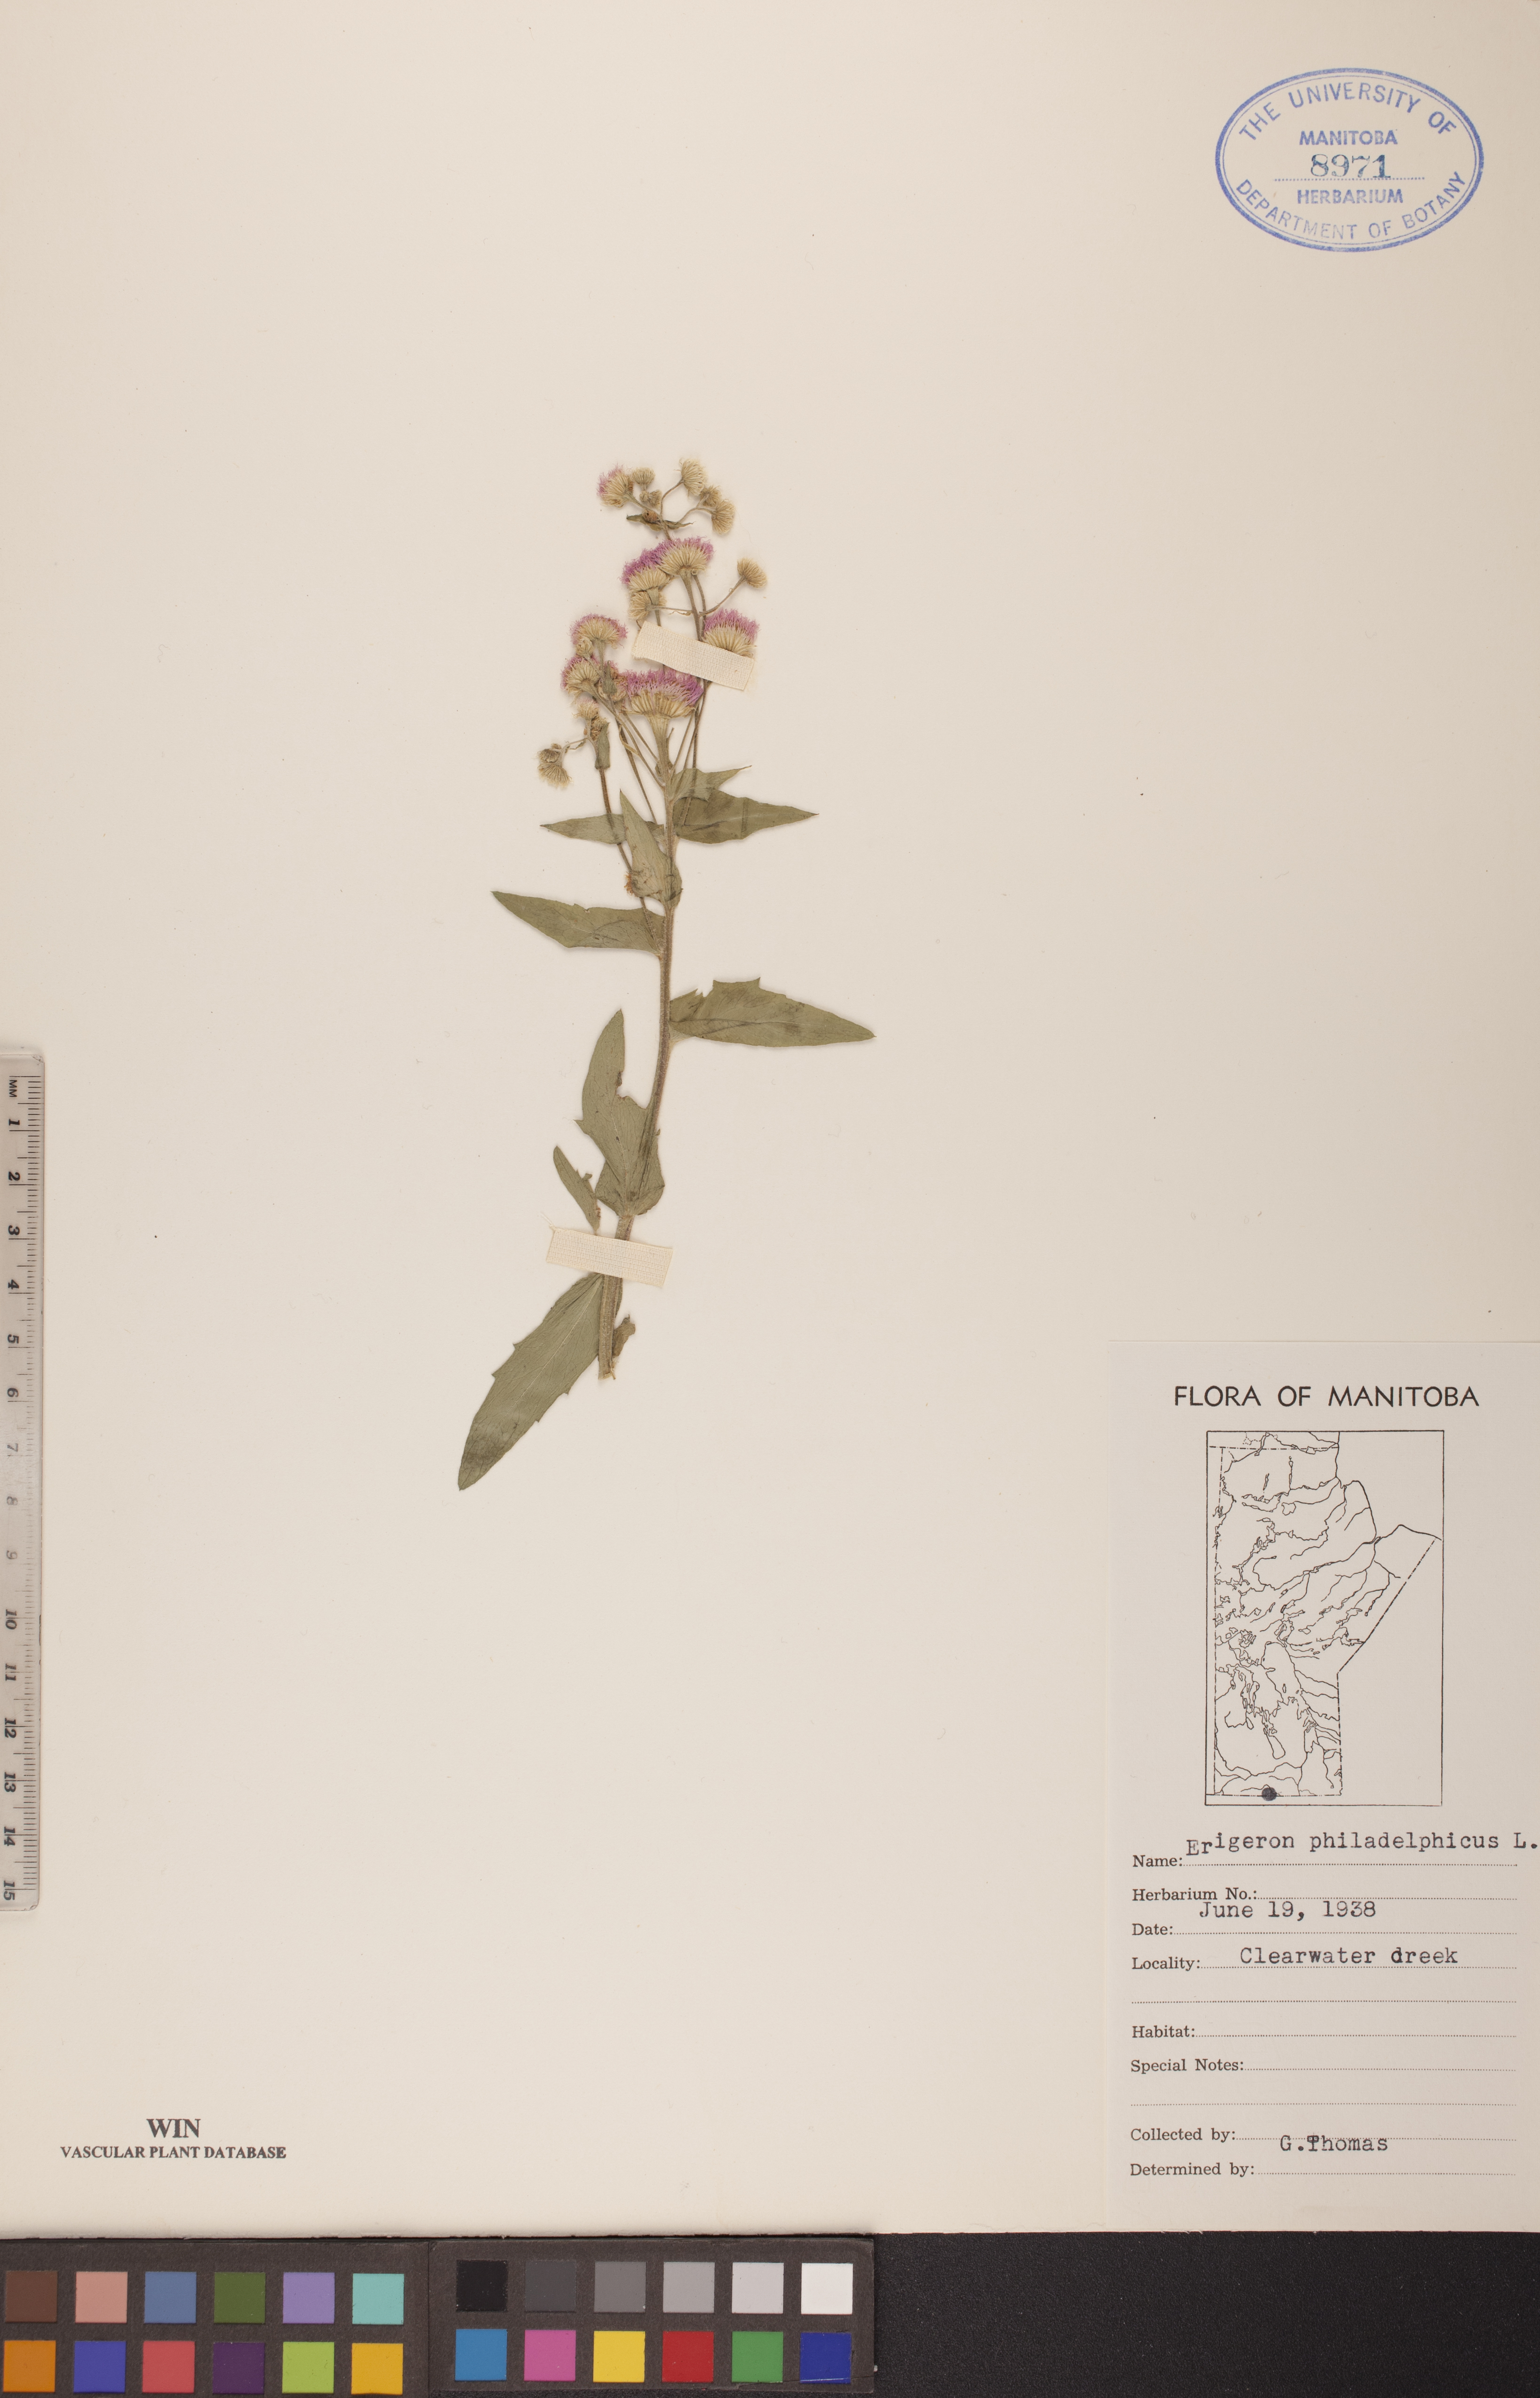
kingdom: Plantae
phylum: Tracheophyta
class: Magnoliopsida
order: Asterales
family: Asteraceae
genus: Erigeron
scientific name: Erigeron philadelphicus
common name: Robin's-plantain
